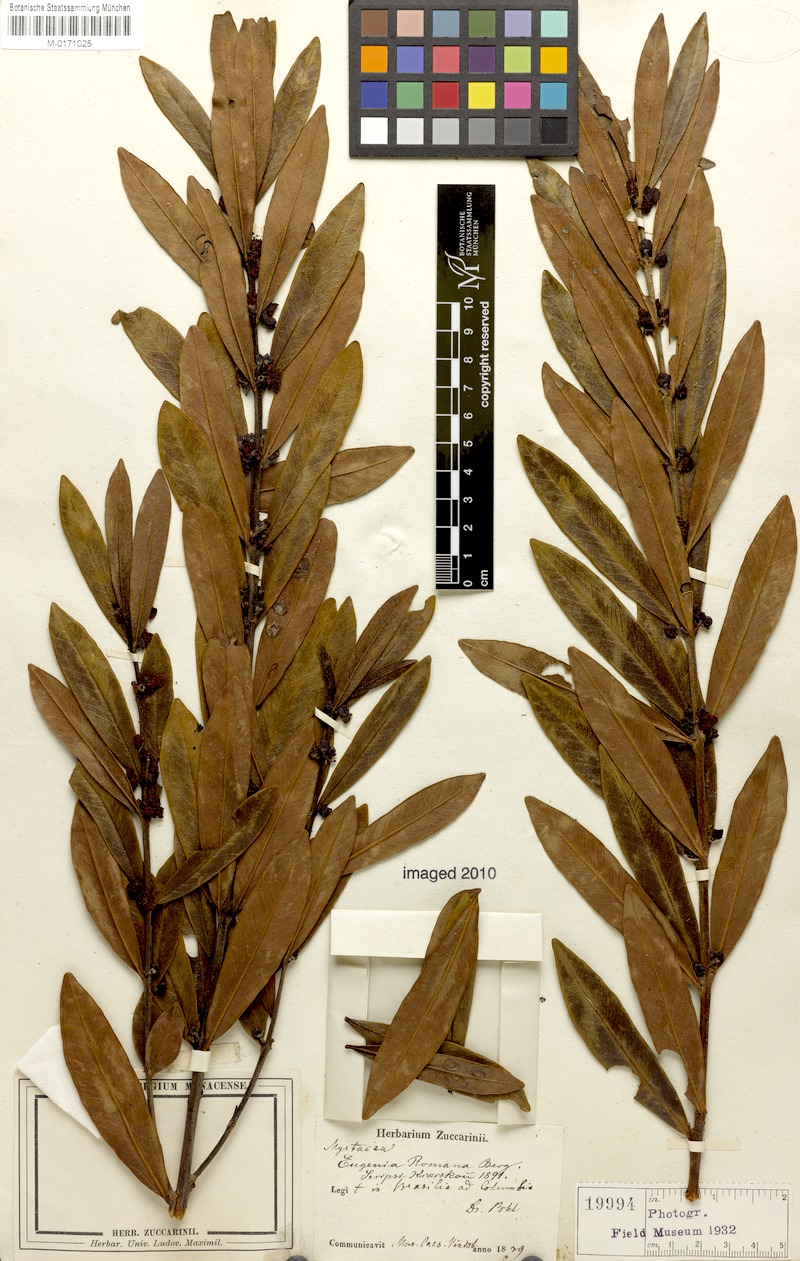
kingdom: Plantae
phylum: Tracheophyta
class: Magnoliopsida
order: Myrtales
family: Myrtaceae
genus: Eugenia
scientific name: Eugenia punicifolia
